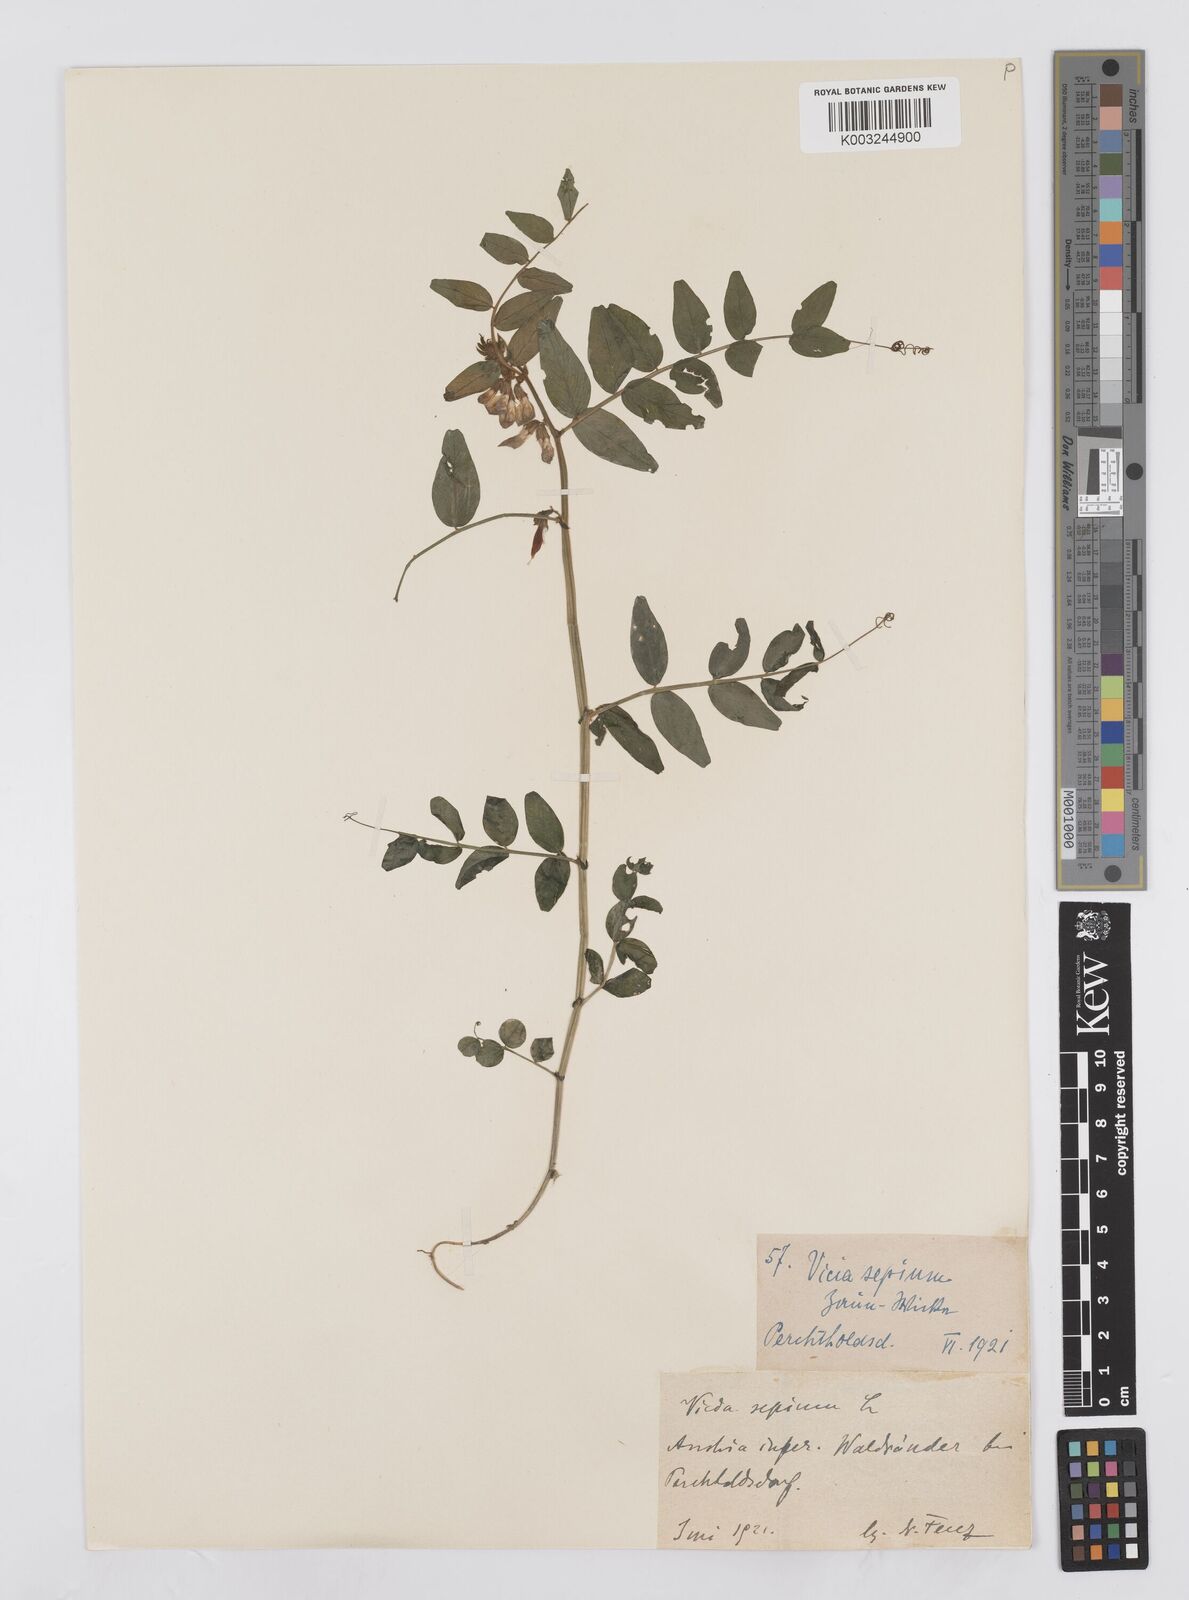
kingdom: Plantae
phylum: Tracheophyta
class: Magnoliopsida
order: Fabales
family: Fabaceae
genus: Vicia
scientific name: Vicia sepium
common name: Bush vetch
